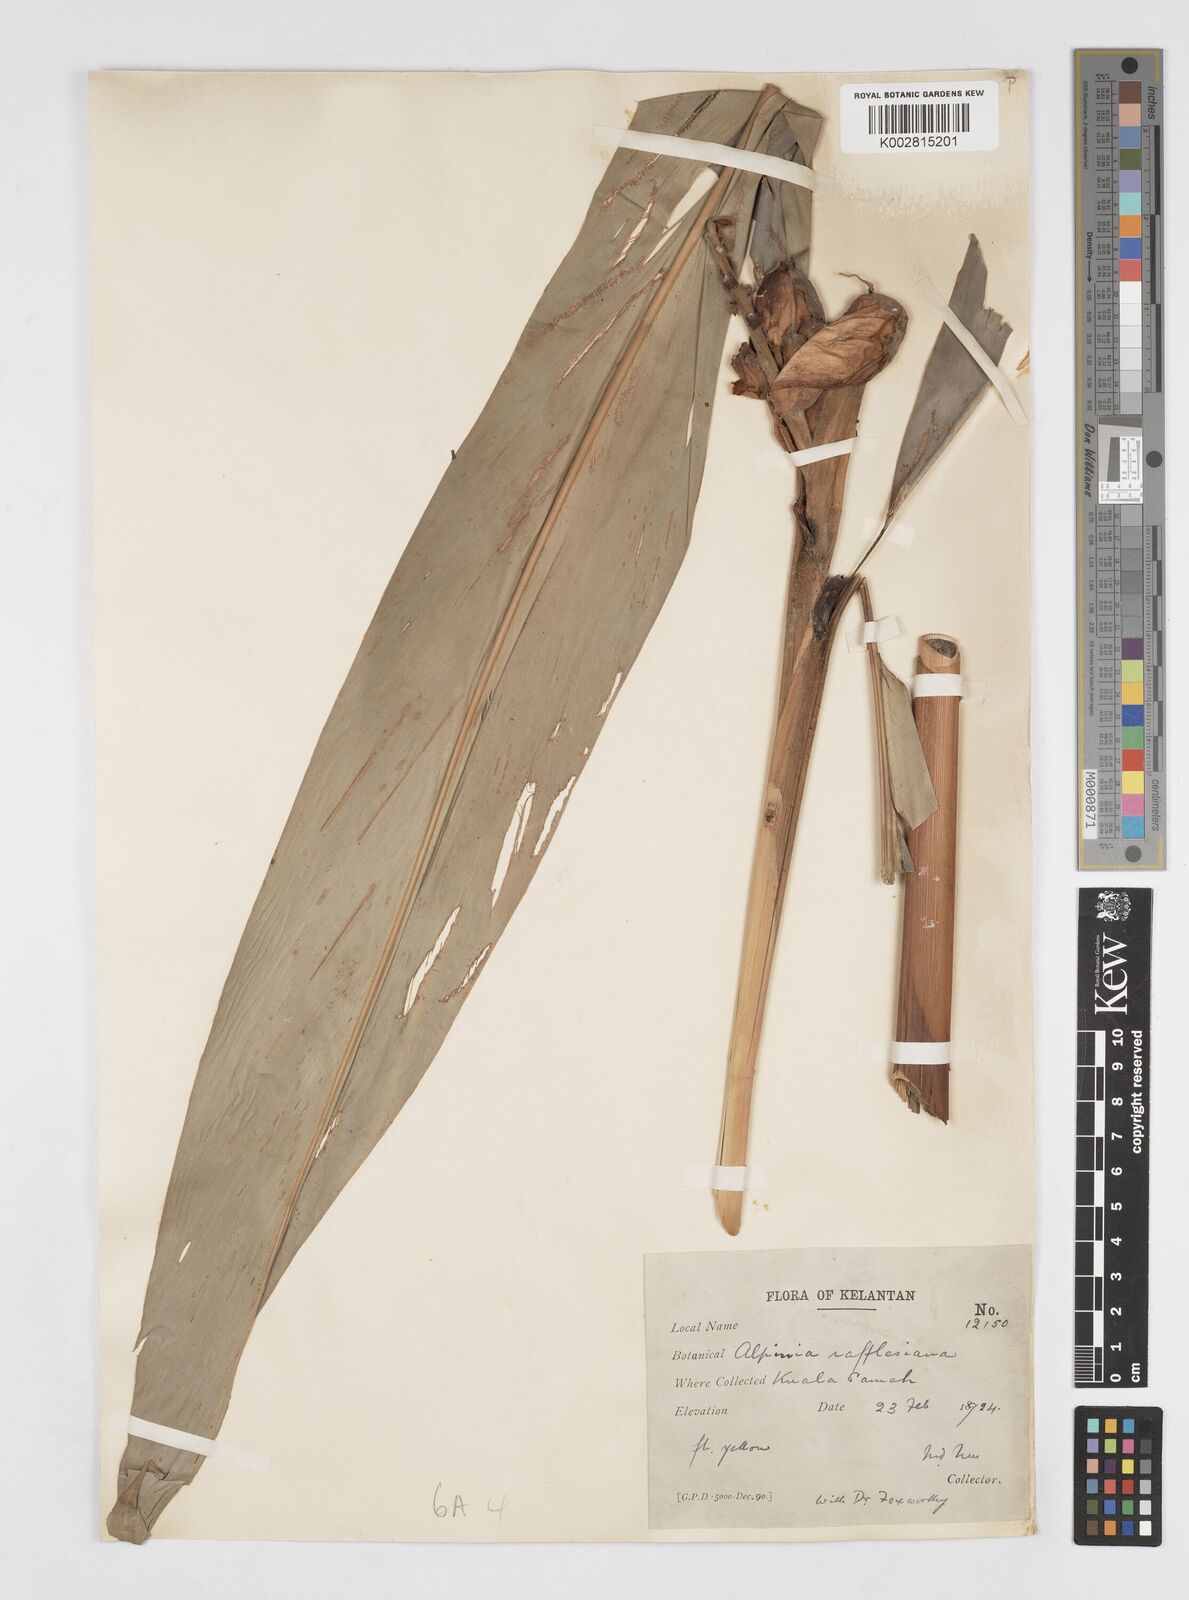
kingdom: Plantae
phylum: Tracheophyta
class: Liliopsida
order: Zingiberales
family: Zingiberaceae
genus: Alpinia
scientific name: Alpinia rafflesiana
